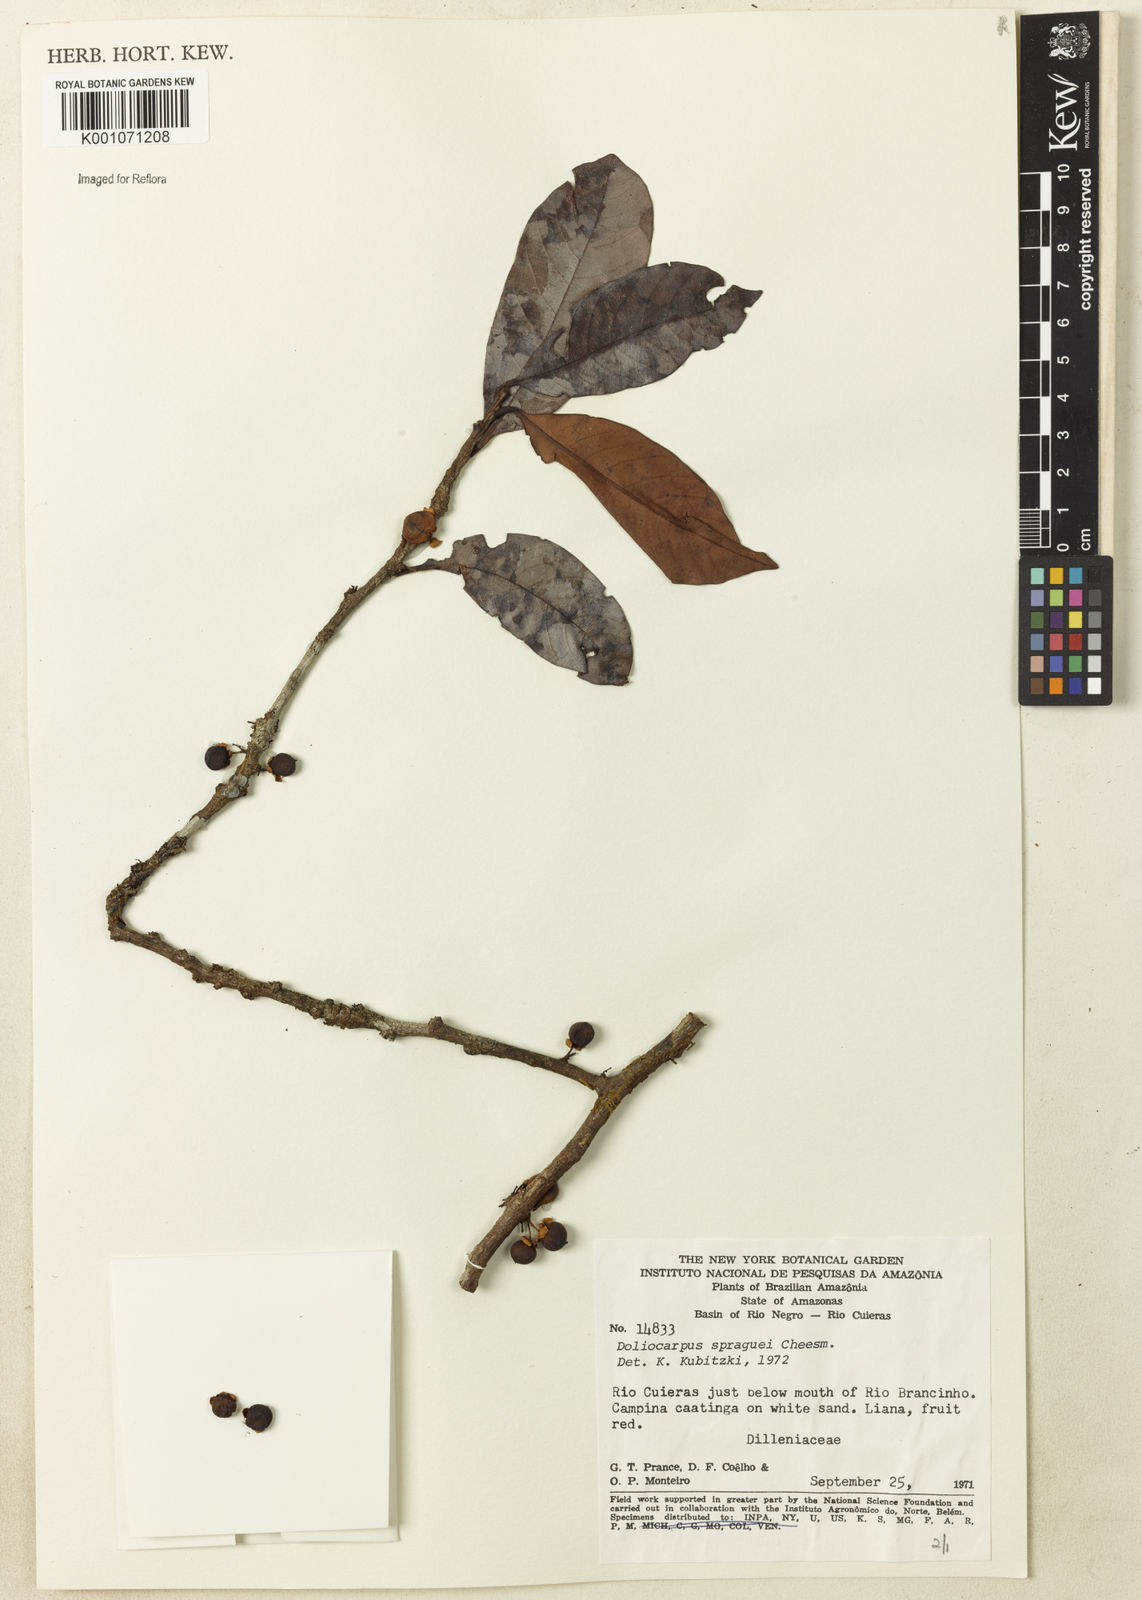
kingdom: Plantae
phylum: Tracheophyta
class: Magnoliopsida
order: Dilleniales
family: Dilleniaceae
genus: Doliocarpus
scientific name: Doliocarpus spraguei
